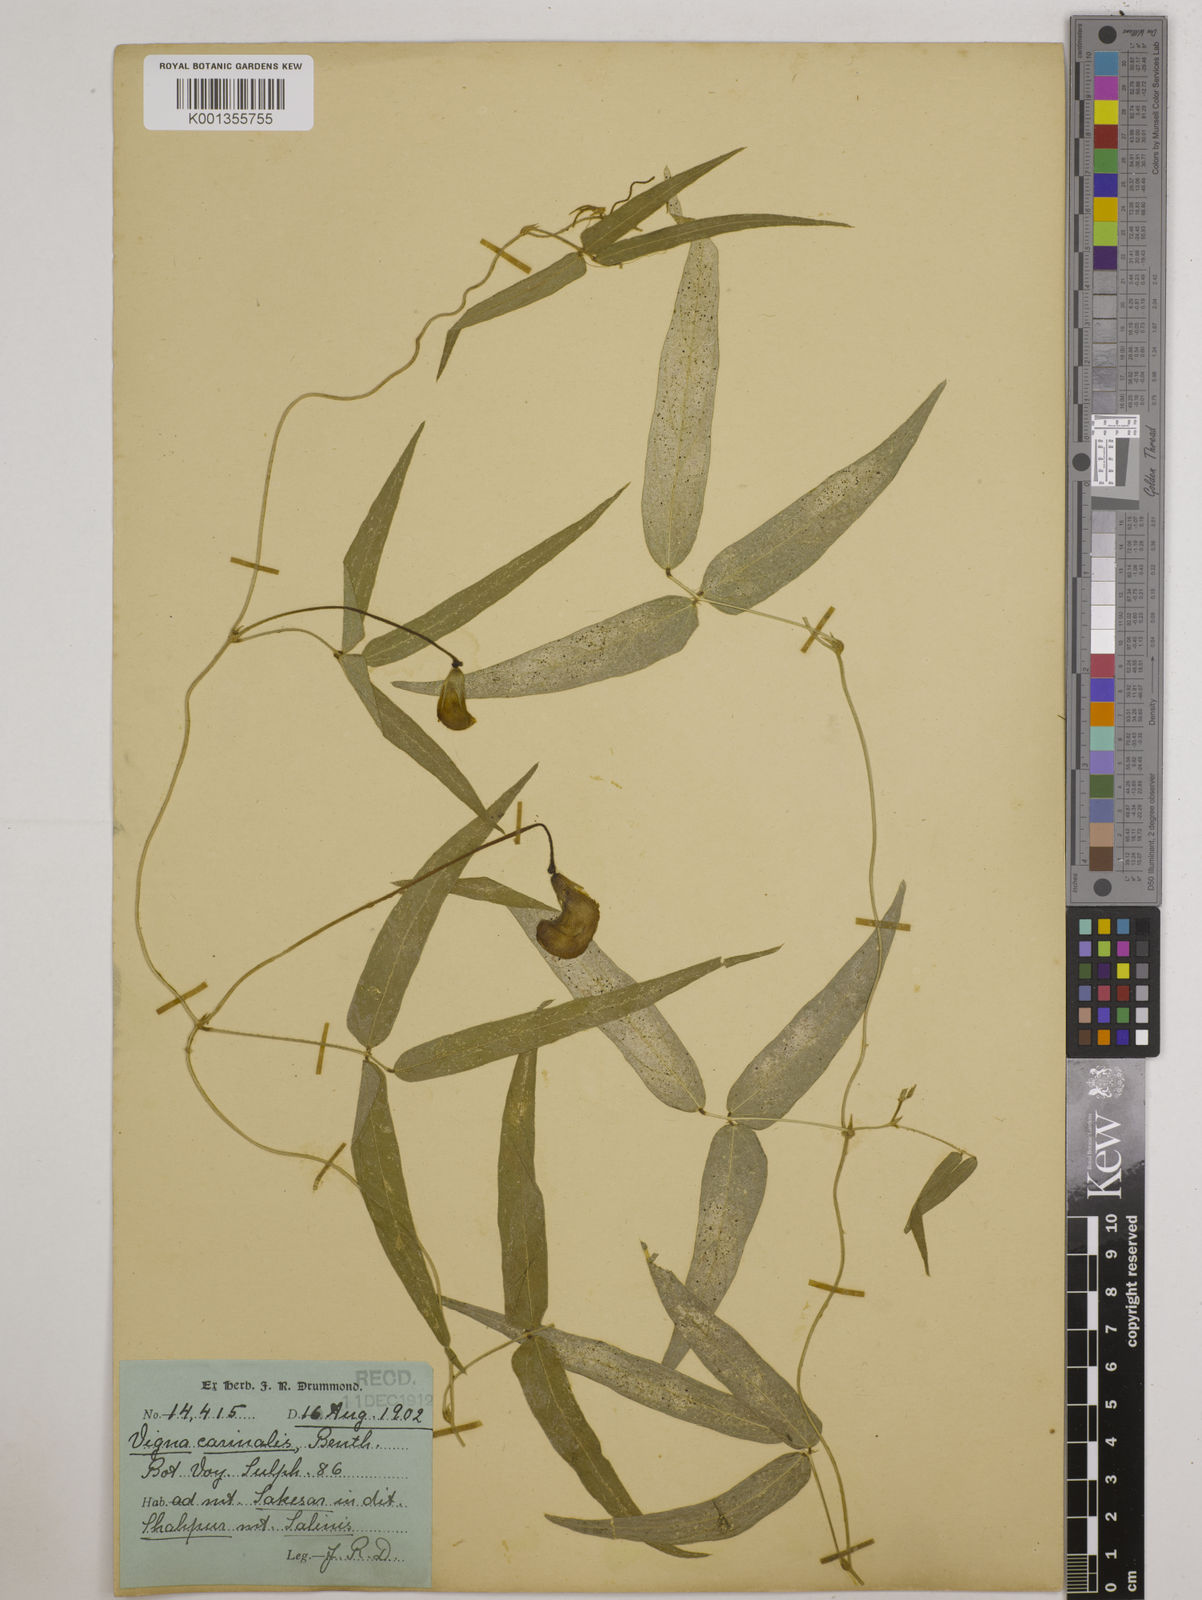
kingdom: Plantae
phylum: Tracheophyta
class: Magnoliopsida
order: Fabales
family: Fabaceae
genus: Vigna
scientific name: Vigna vexillata
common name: Zombi pea
